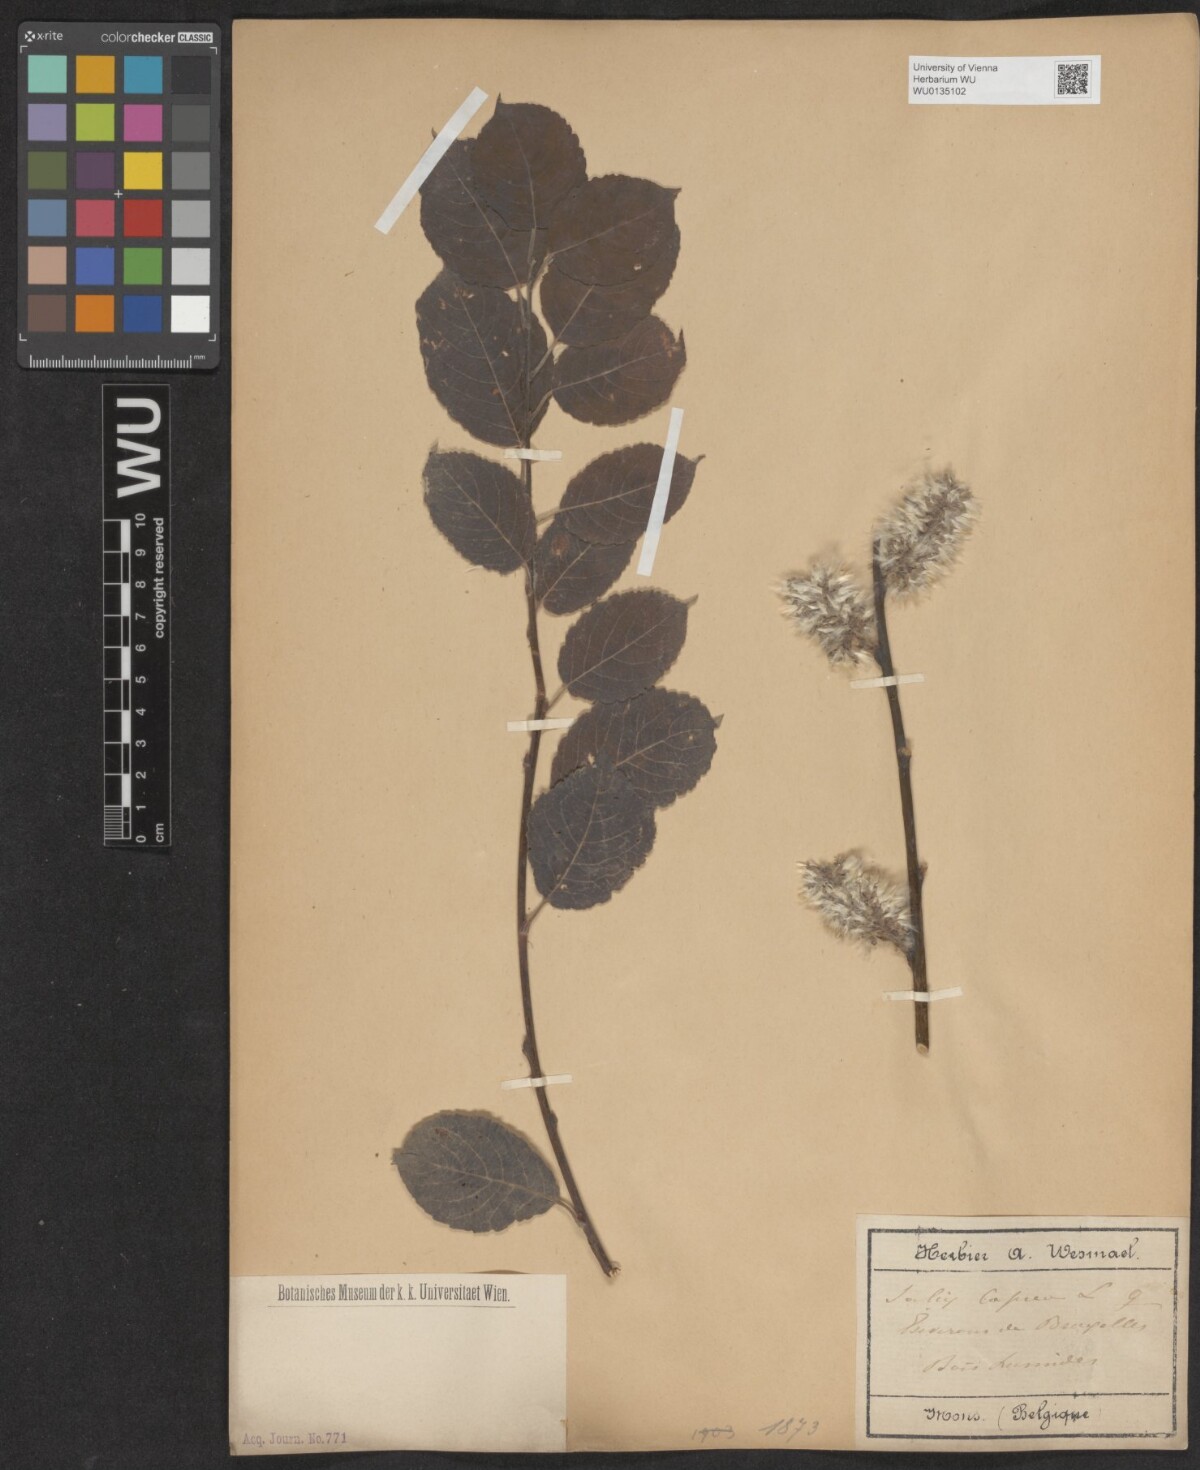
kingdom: Plantae
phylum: Tracheophyta
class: Magnoliopsida
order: Malpighiales
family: Salicaceae
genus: Salix
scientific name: Salix caprea
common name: Goat willow
